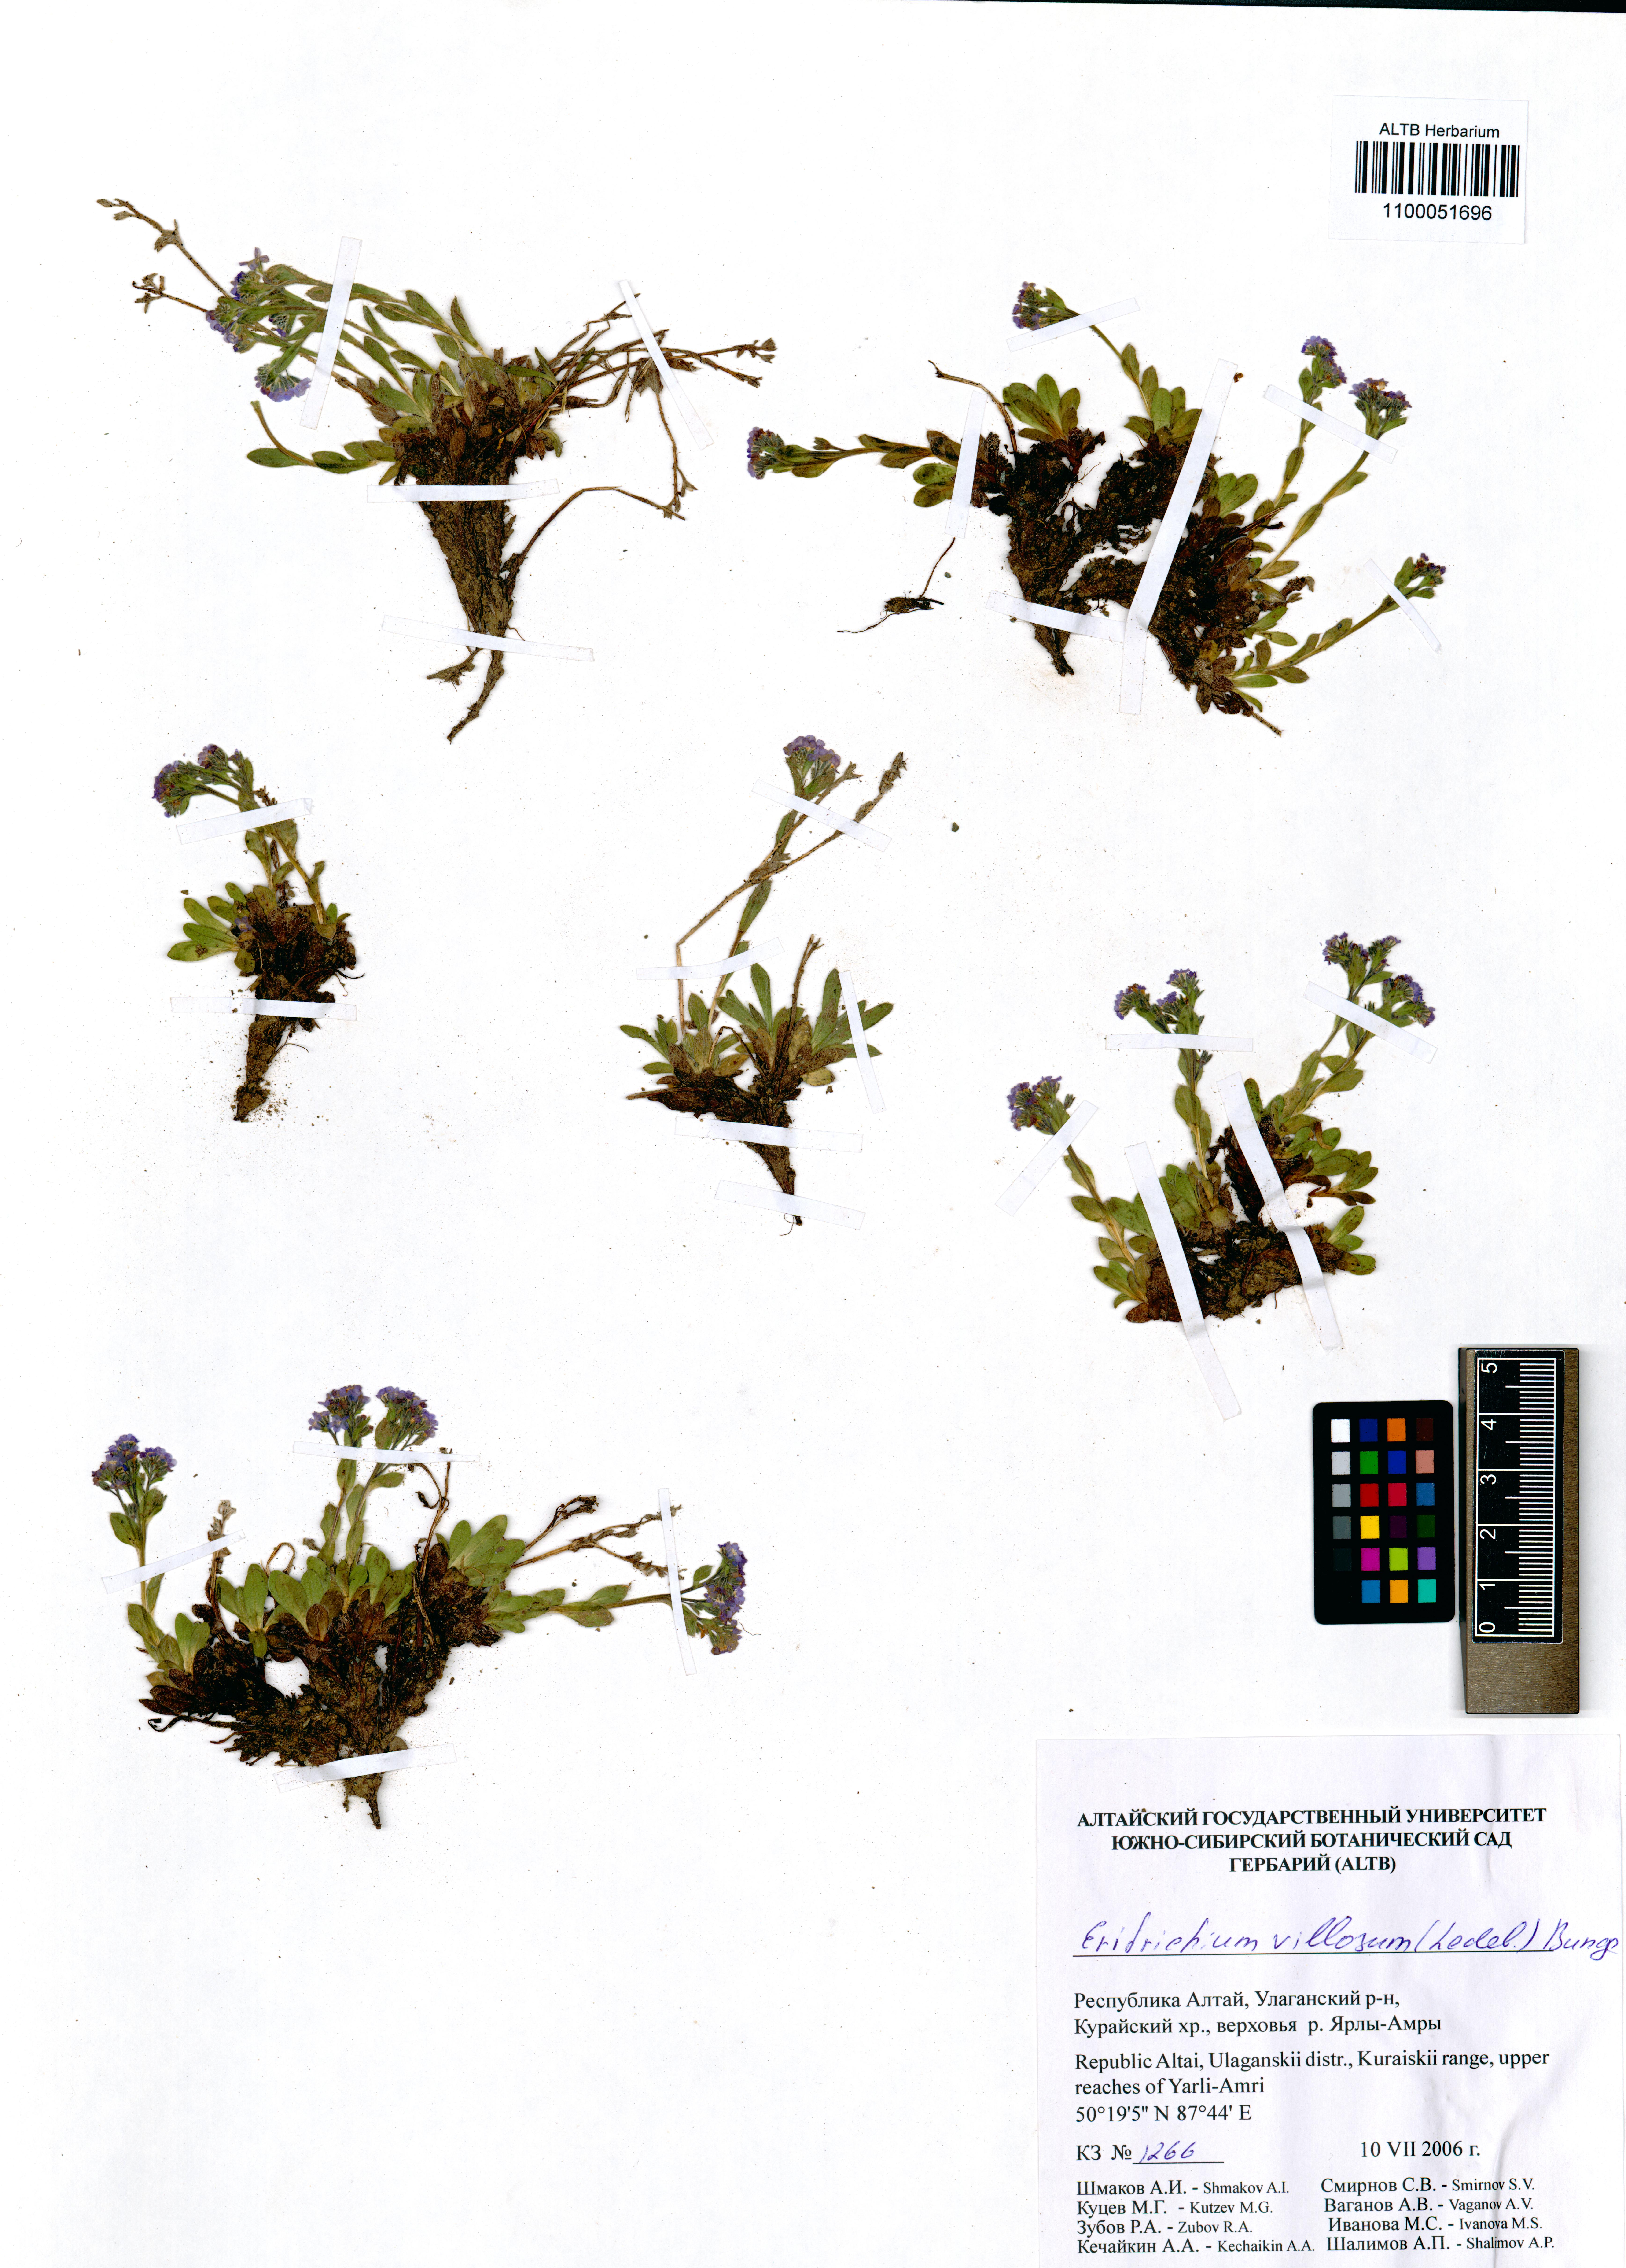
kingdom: Plantae
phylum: Tracheophyta
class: Magnoliopsida
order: Boraginales
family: Boraginaceae
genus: Eritrichium
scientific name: Eritrichium villosum
